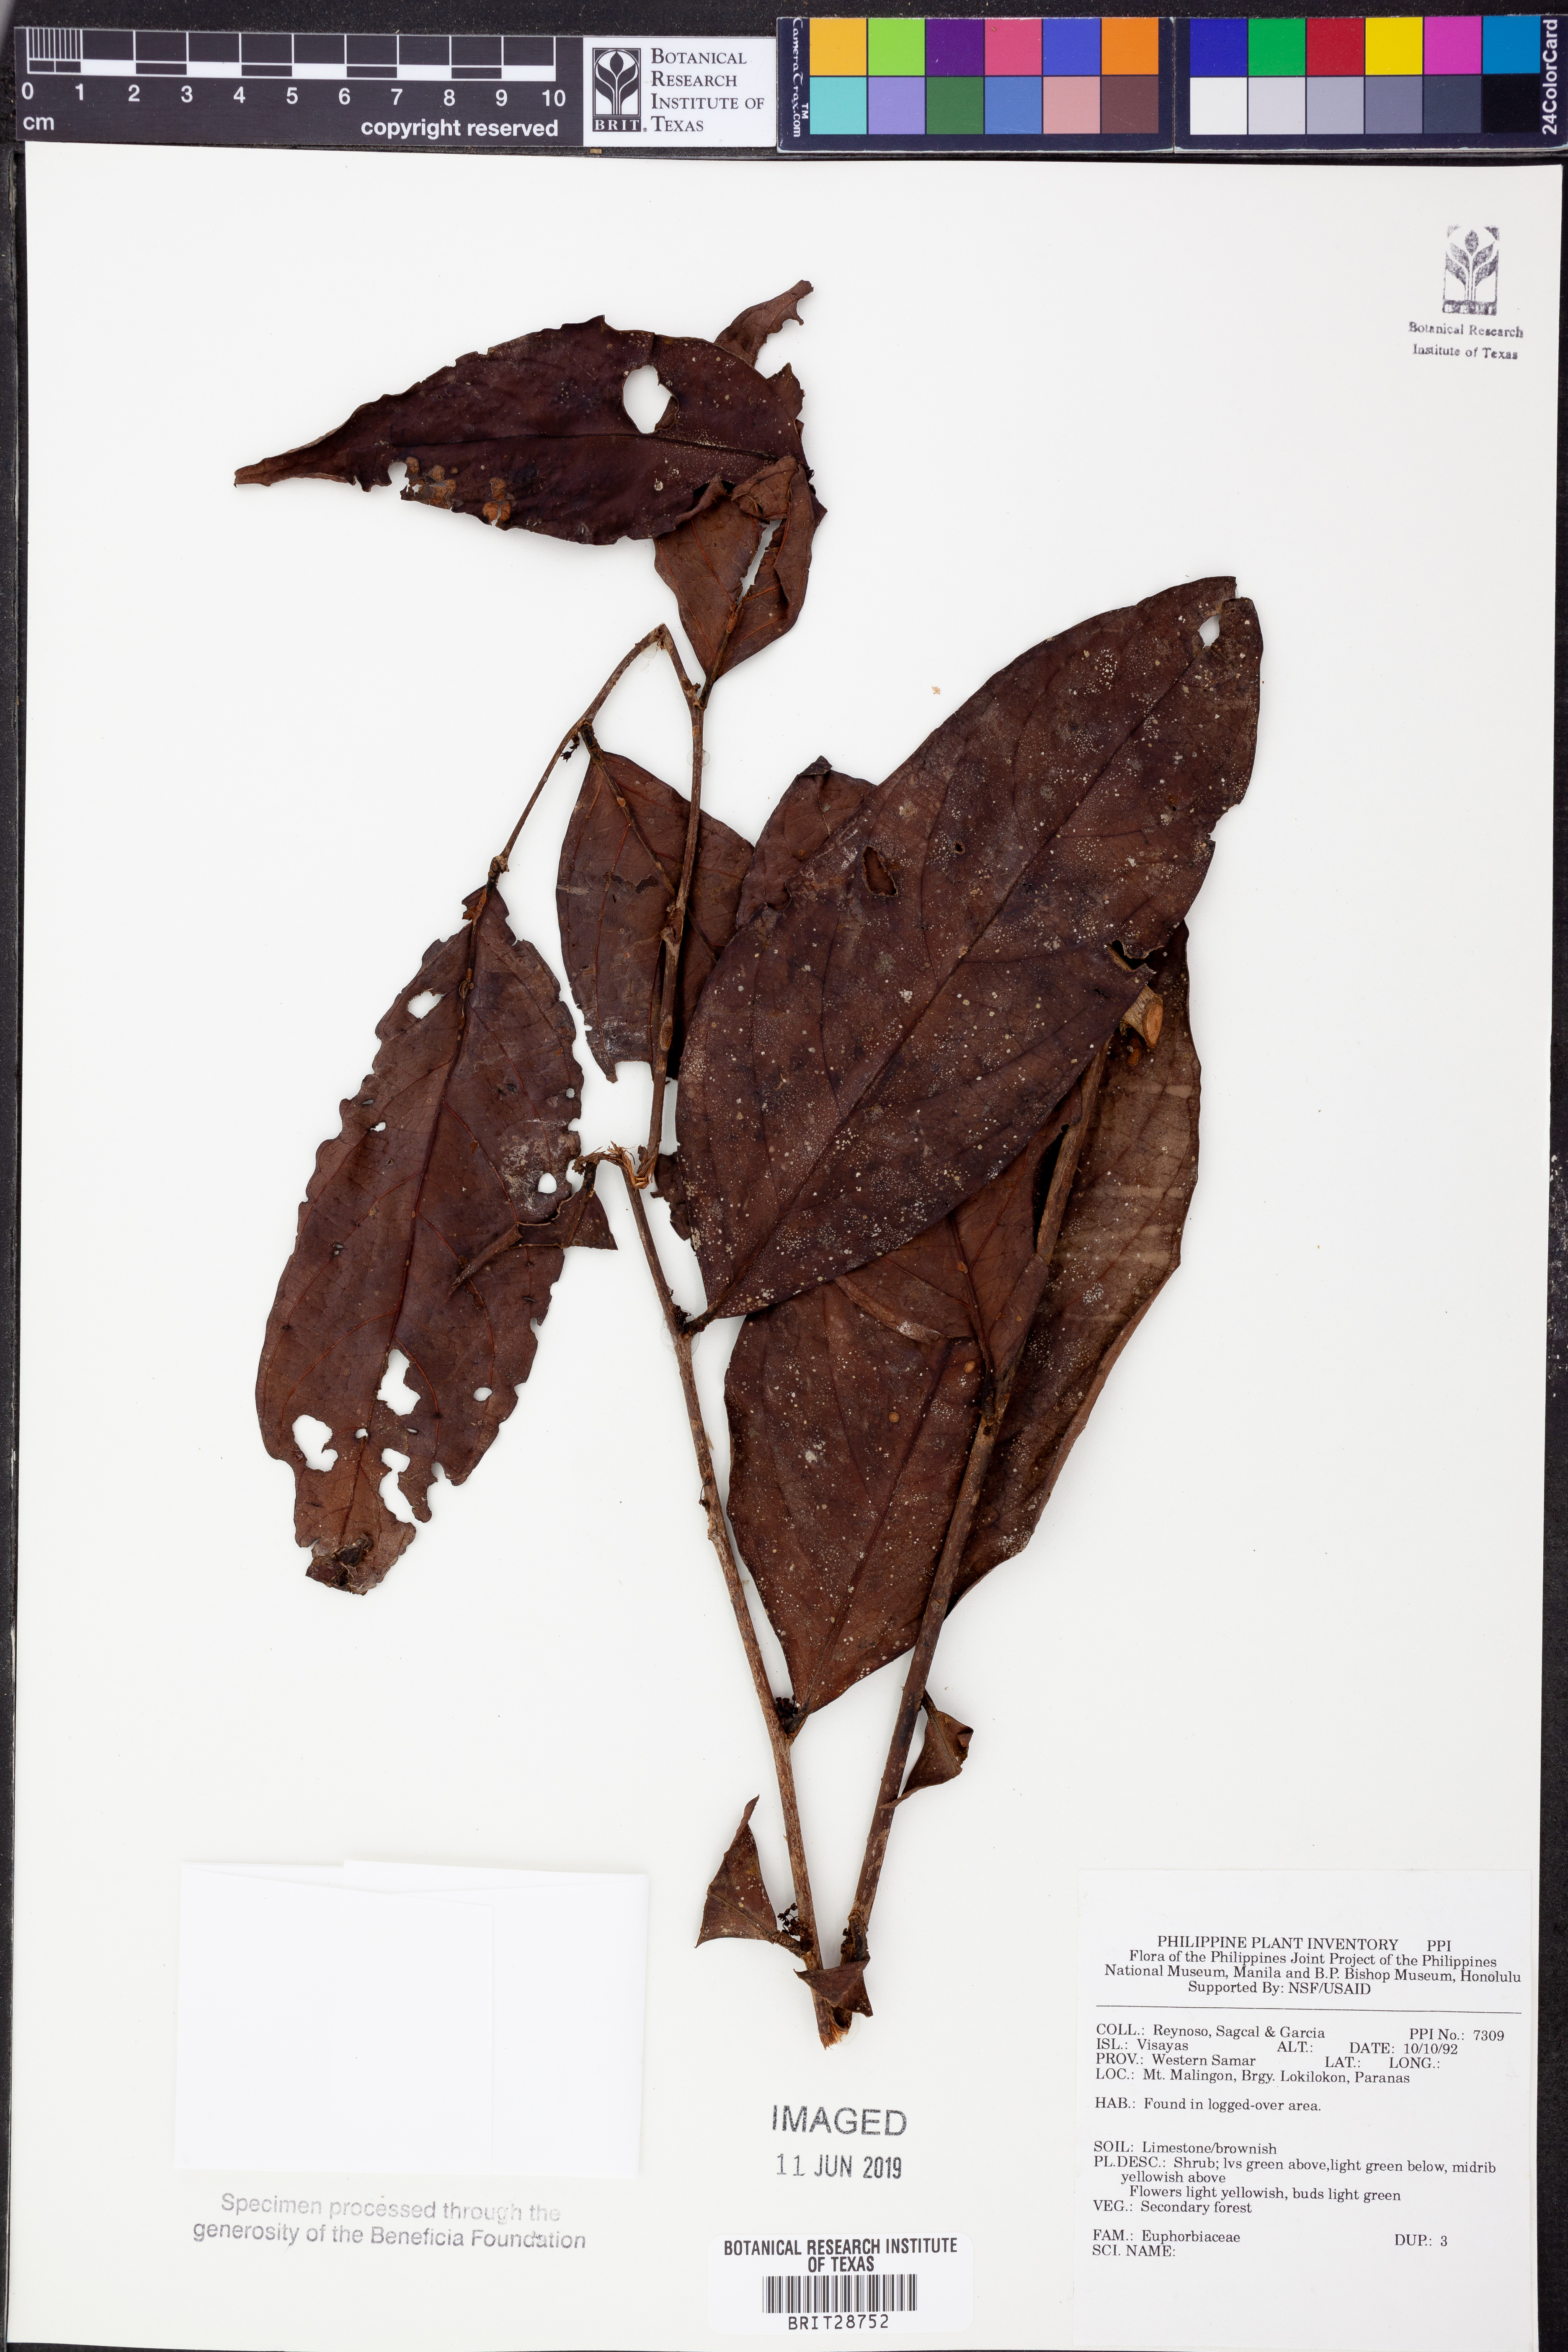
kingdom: Plantae
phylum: Tracheophyta
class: Magnoliopsida
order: Malpighiales
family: Euphorbiaceae
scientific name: Euphorbiaceae
